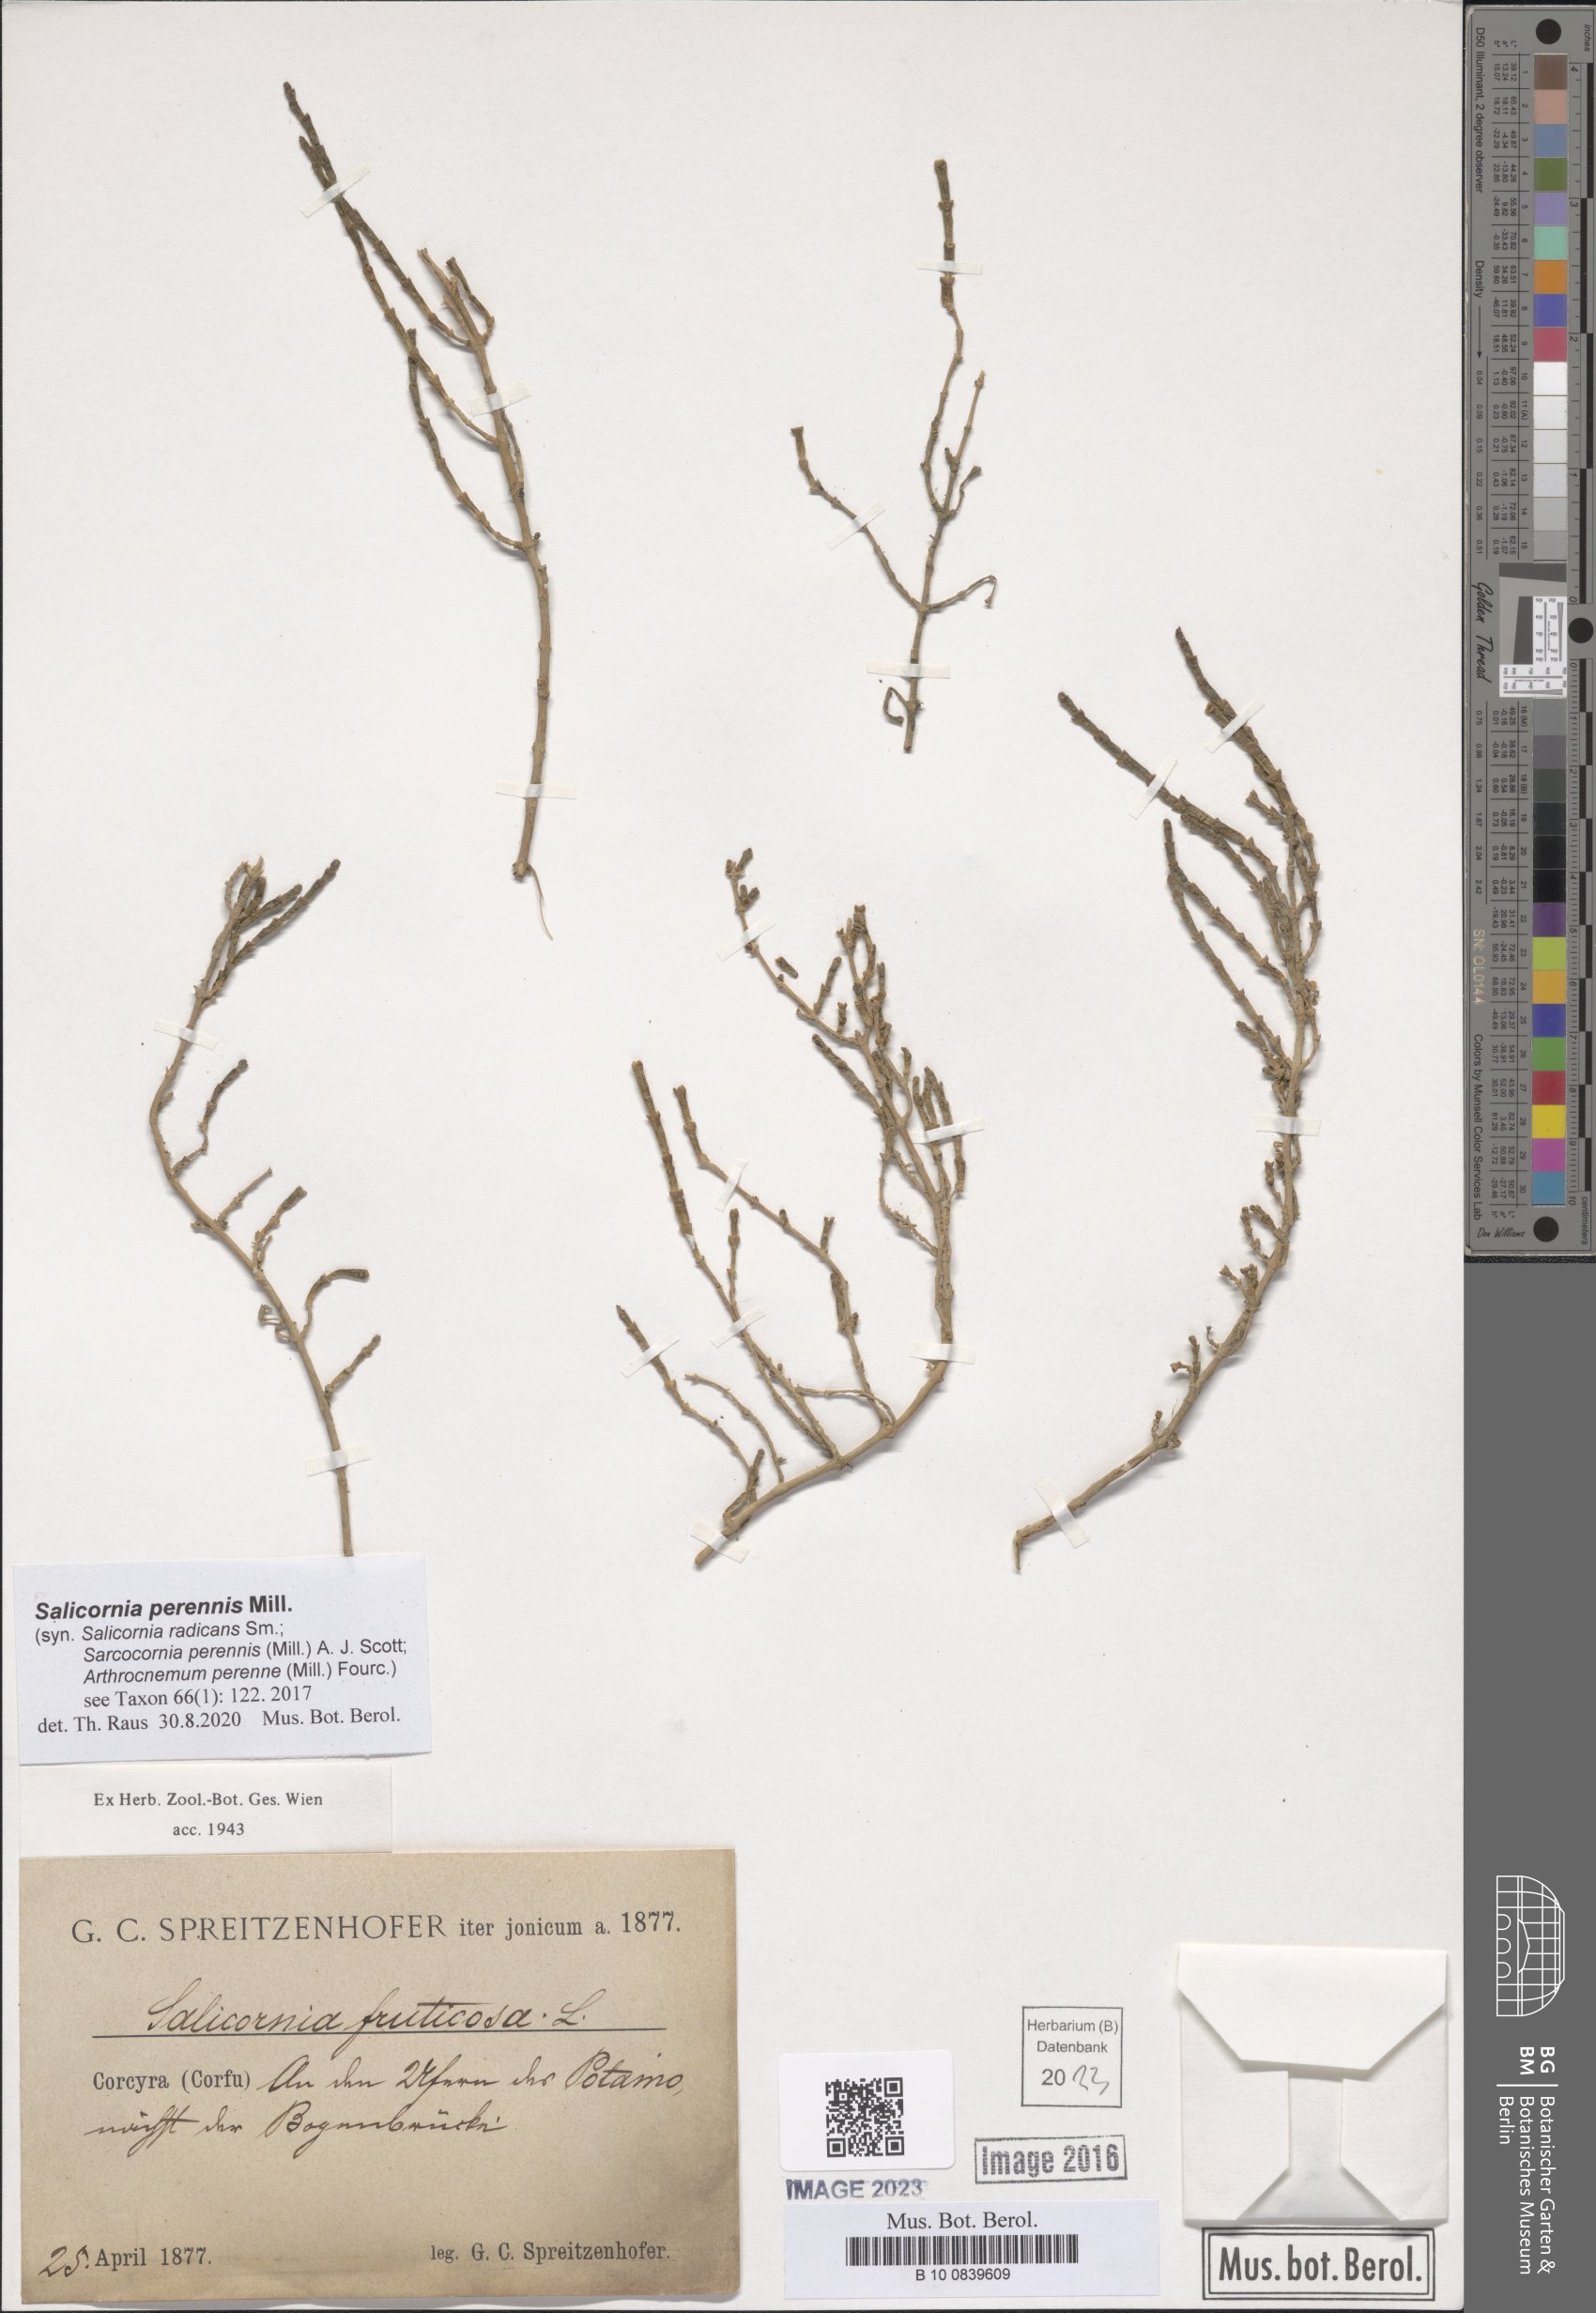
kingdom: Plantae
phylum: Tracheophyta
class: Magnoliopsida
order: Caryophyllales
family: Amaranthaceae
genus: Salicornia
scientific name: Salicornia perennis
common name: Chicken claws
